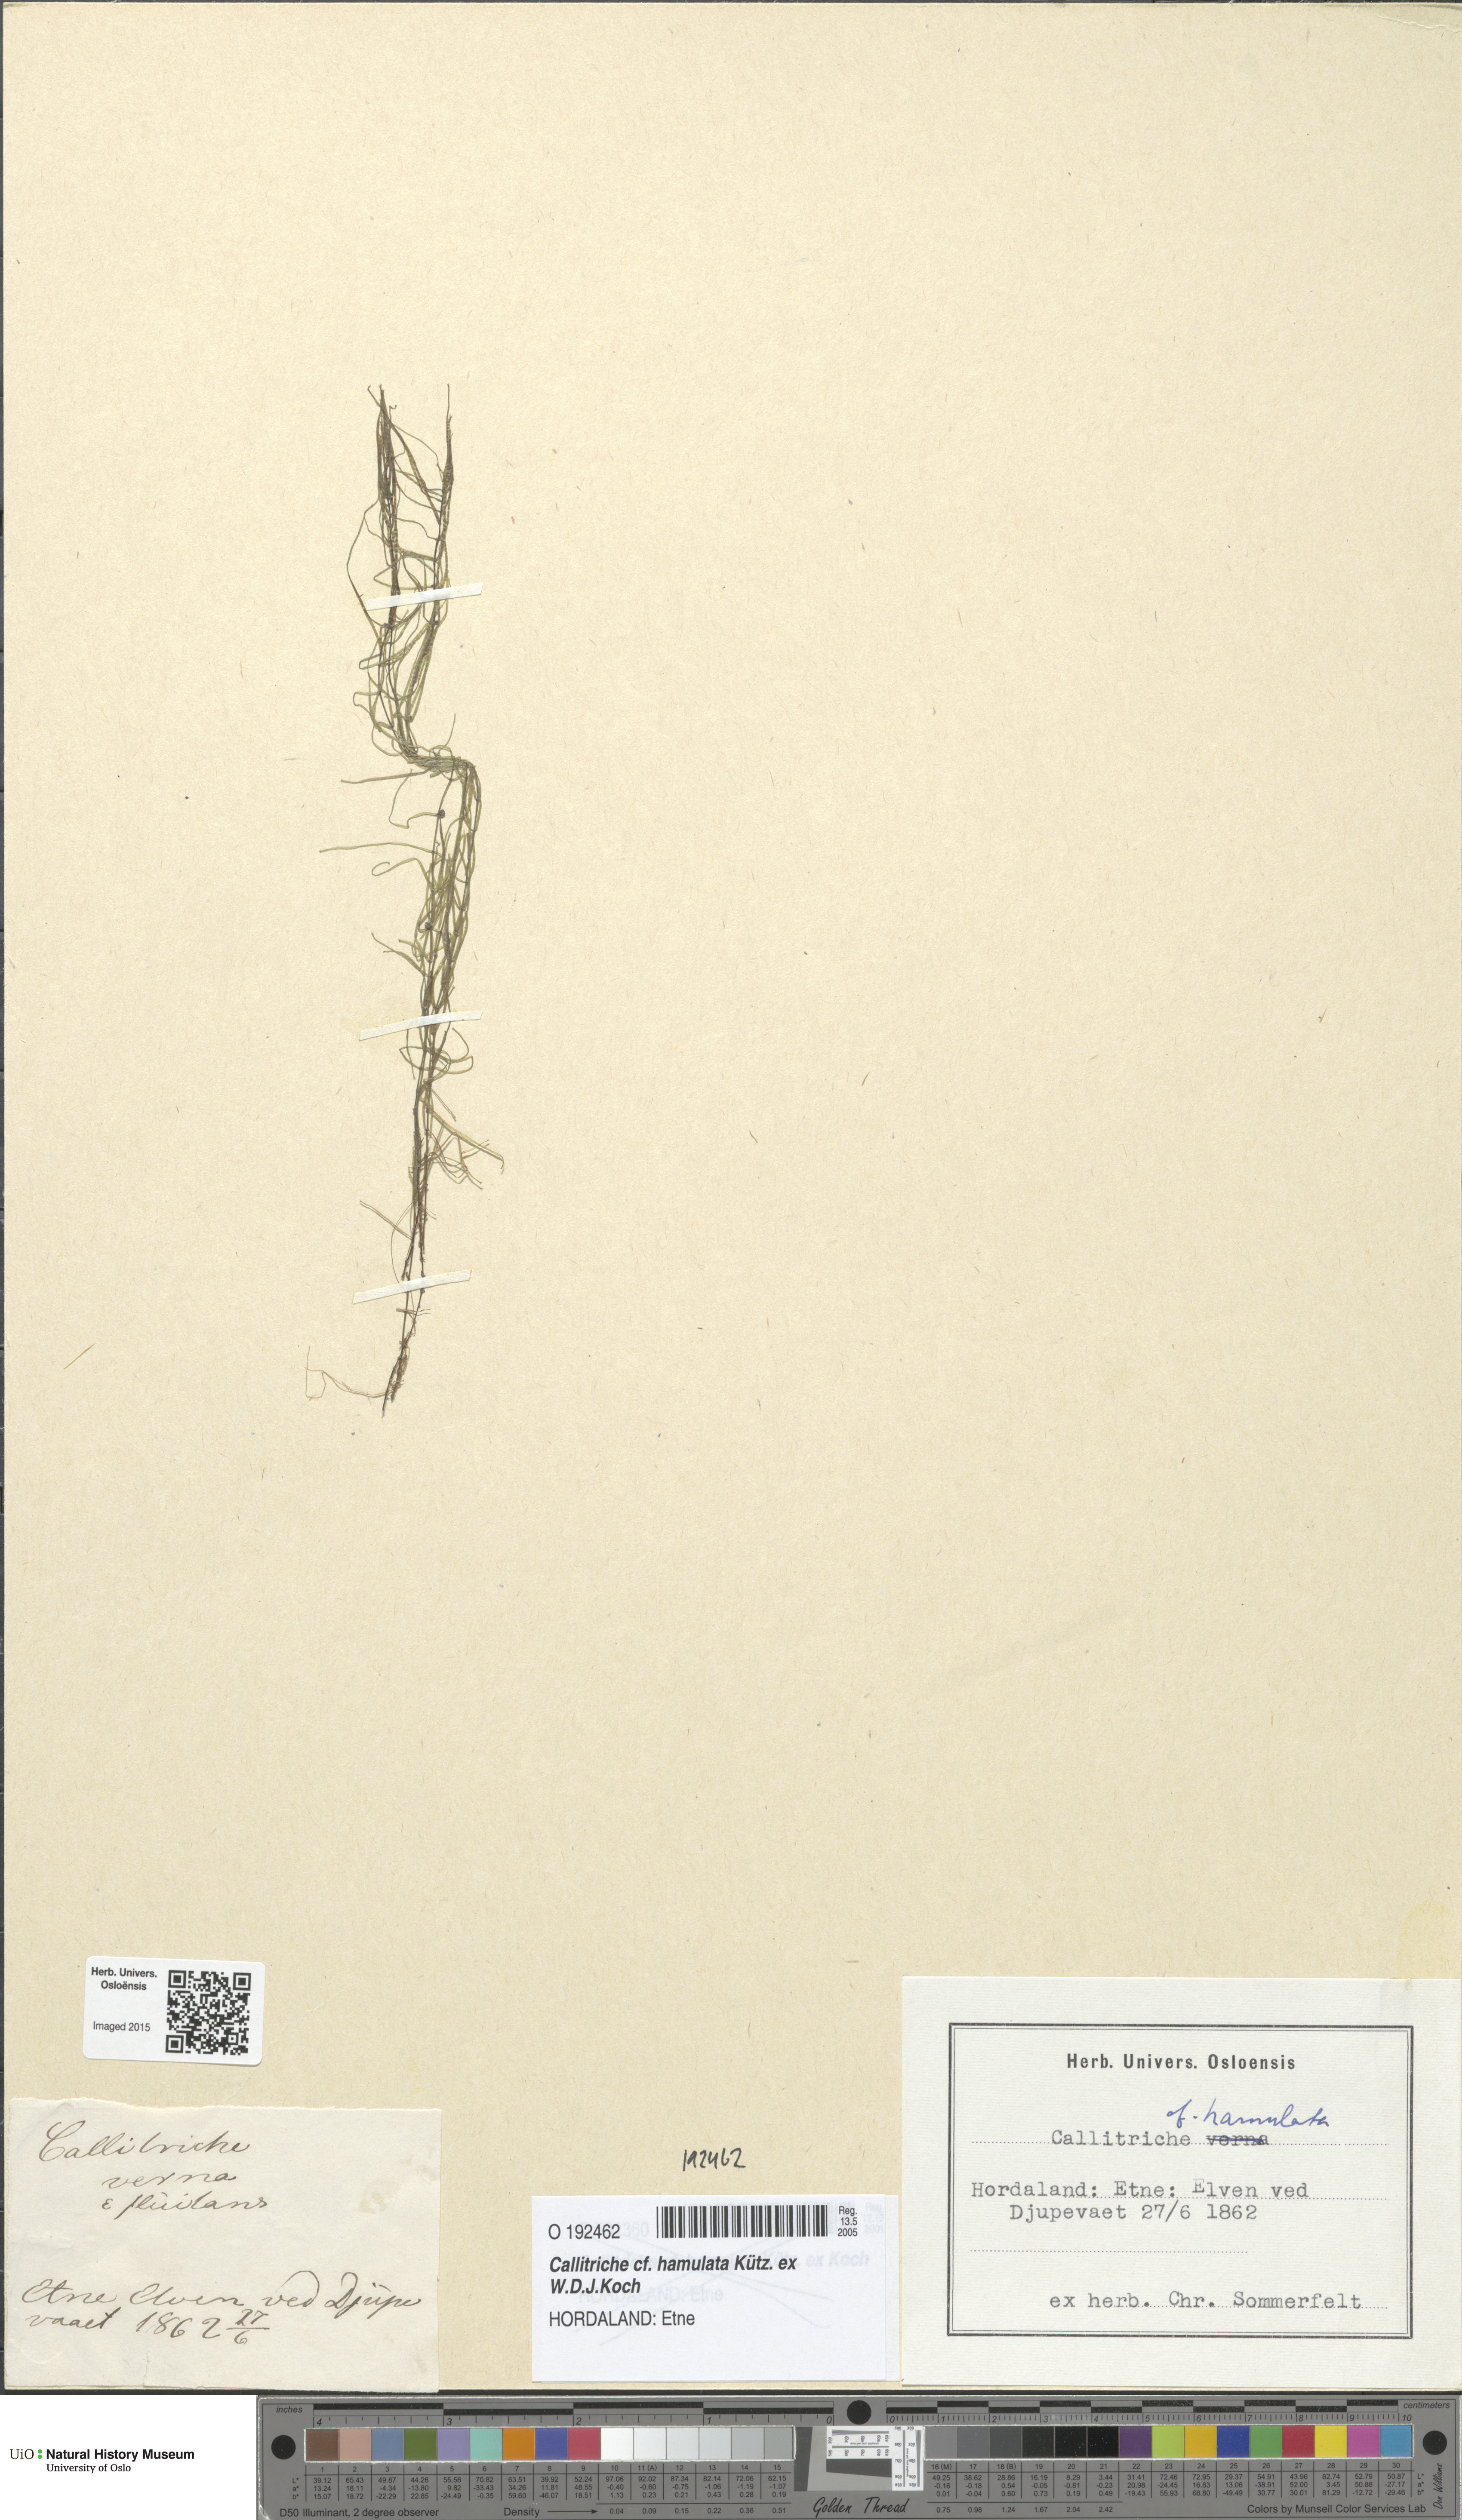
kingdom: Plantae
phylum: Tracheophyta
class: Magnoliopsida
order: Lamiales
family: Plantaginaceae
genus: Callitriche
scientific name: Callitriche hamulata
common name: Intermediate water-starwort
